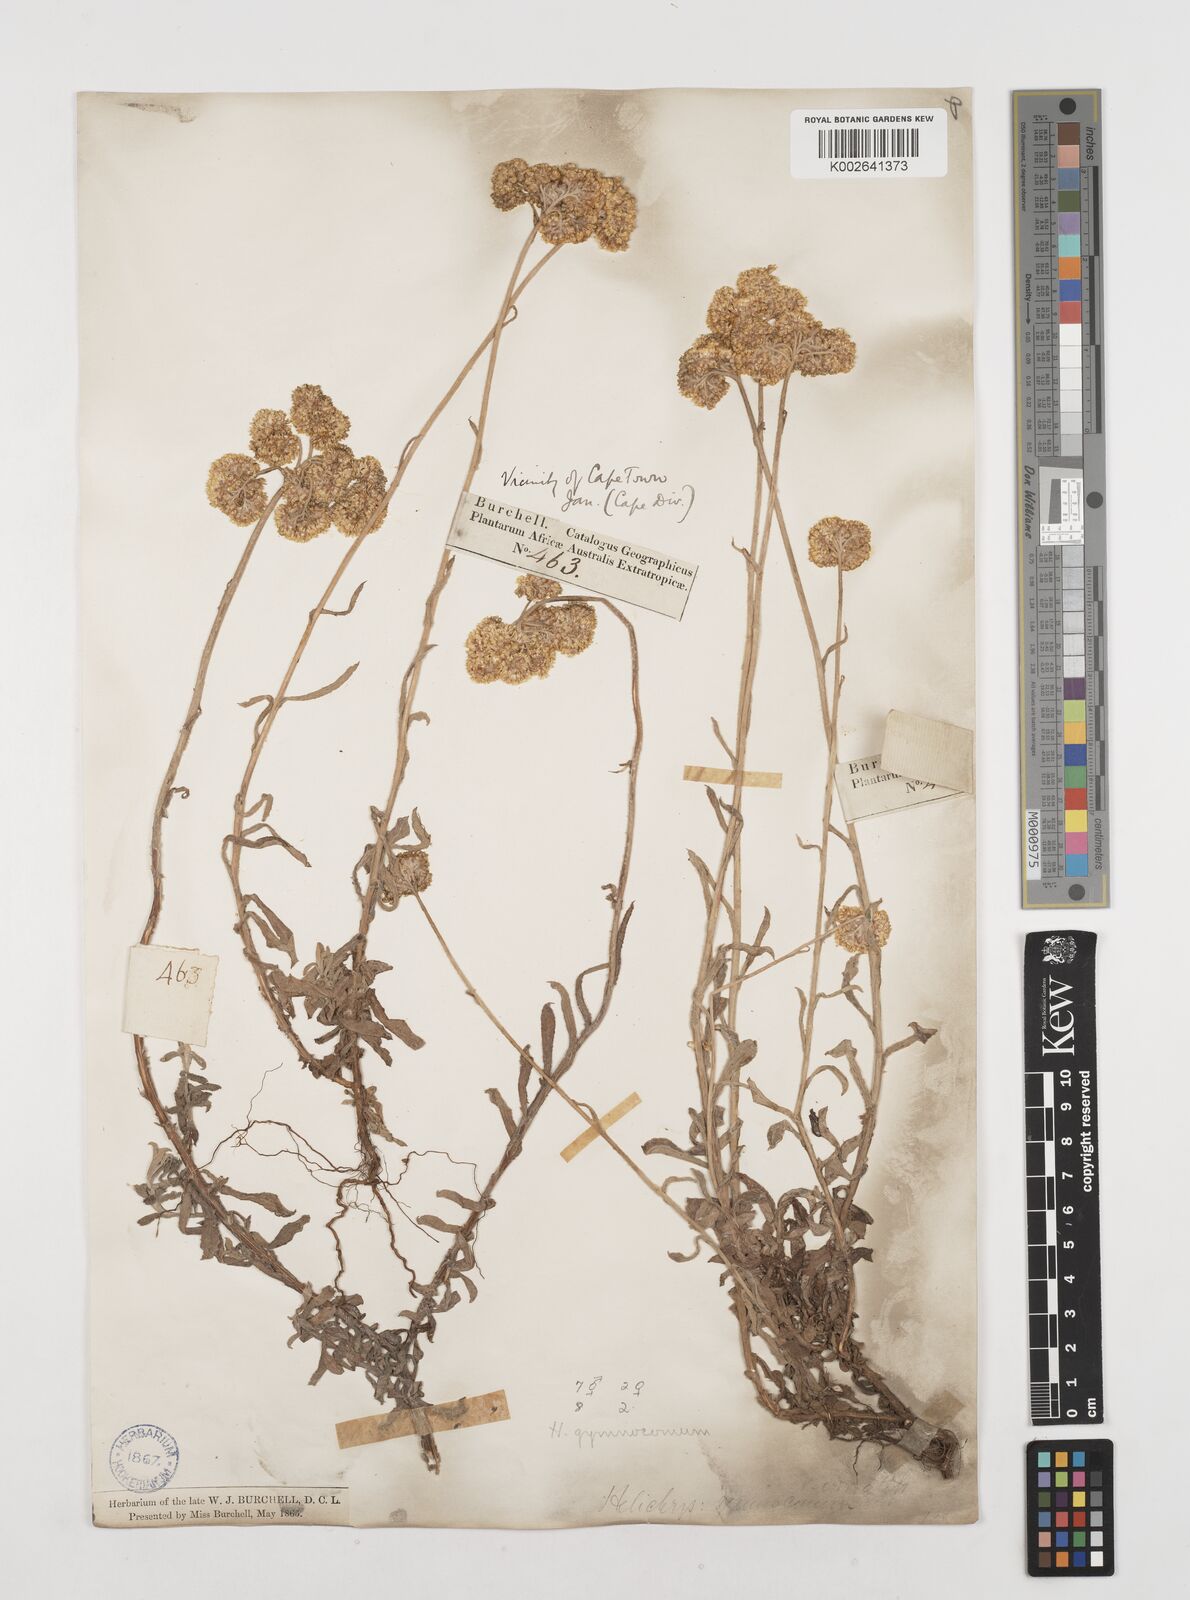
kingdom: Plantae
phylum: Tracheophyta
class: Magnoliopsida
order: Asterales
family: Asteraceae
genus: Helichrysum
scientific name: Helichrysum gymnocomum
